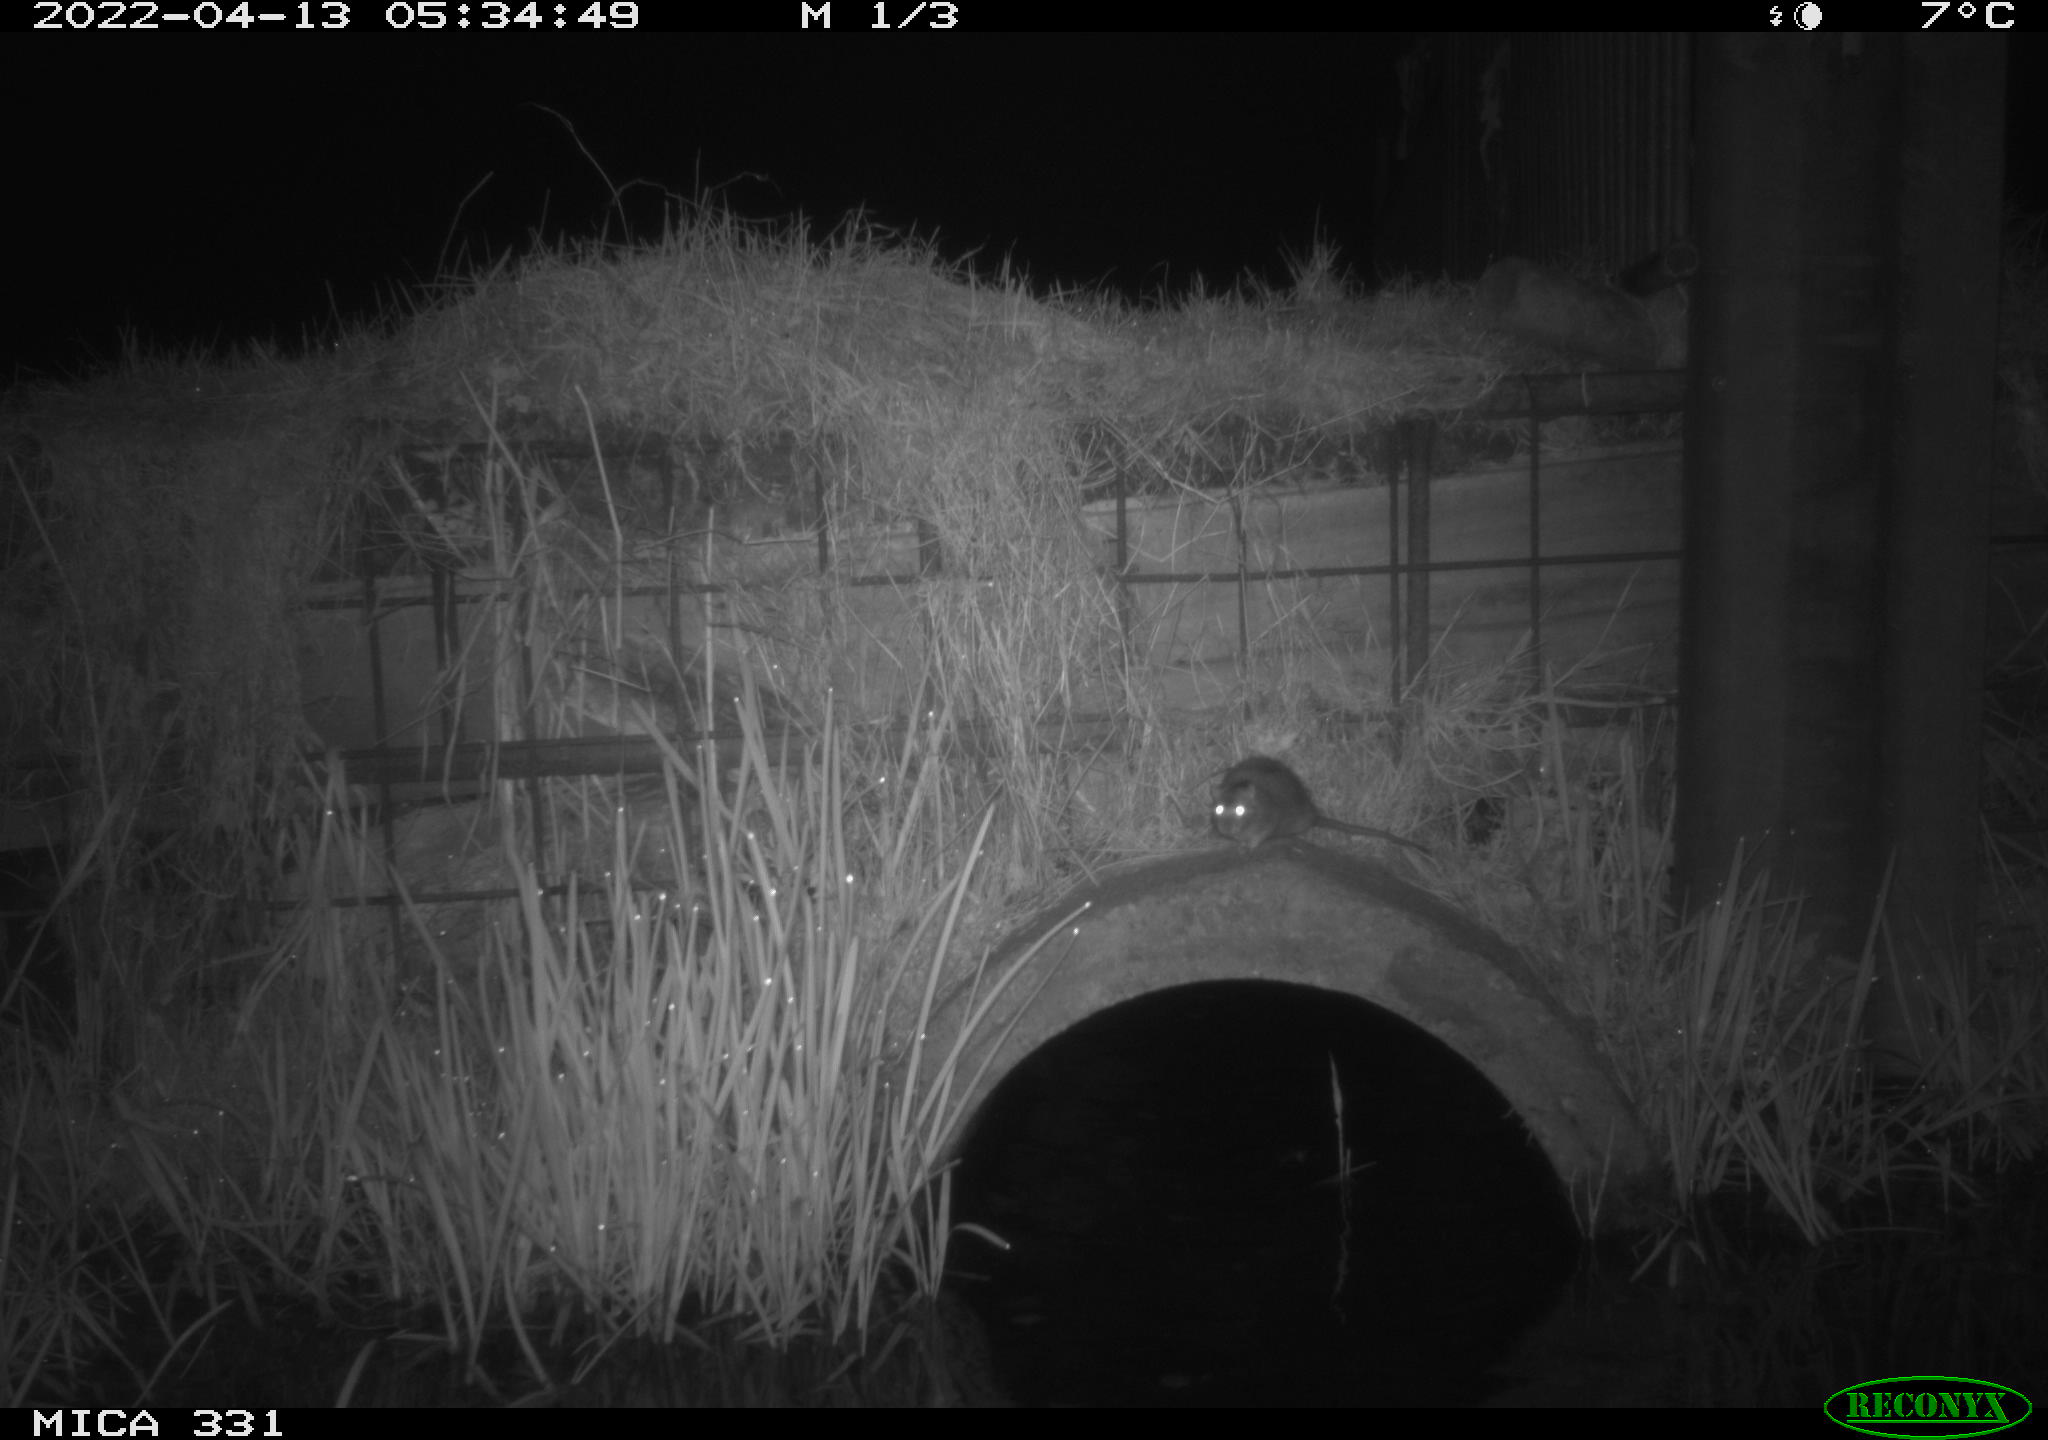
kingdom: Animalia
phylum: Chordata
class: Mammalia
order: Rodentia
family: Muridae
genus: Rattus
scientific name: Rattus norvegicus
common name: Brown rat
